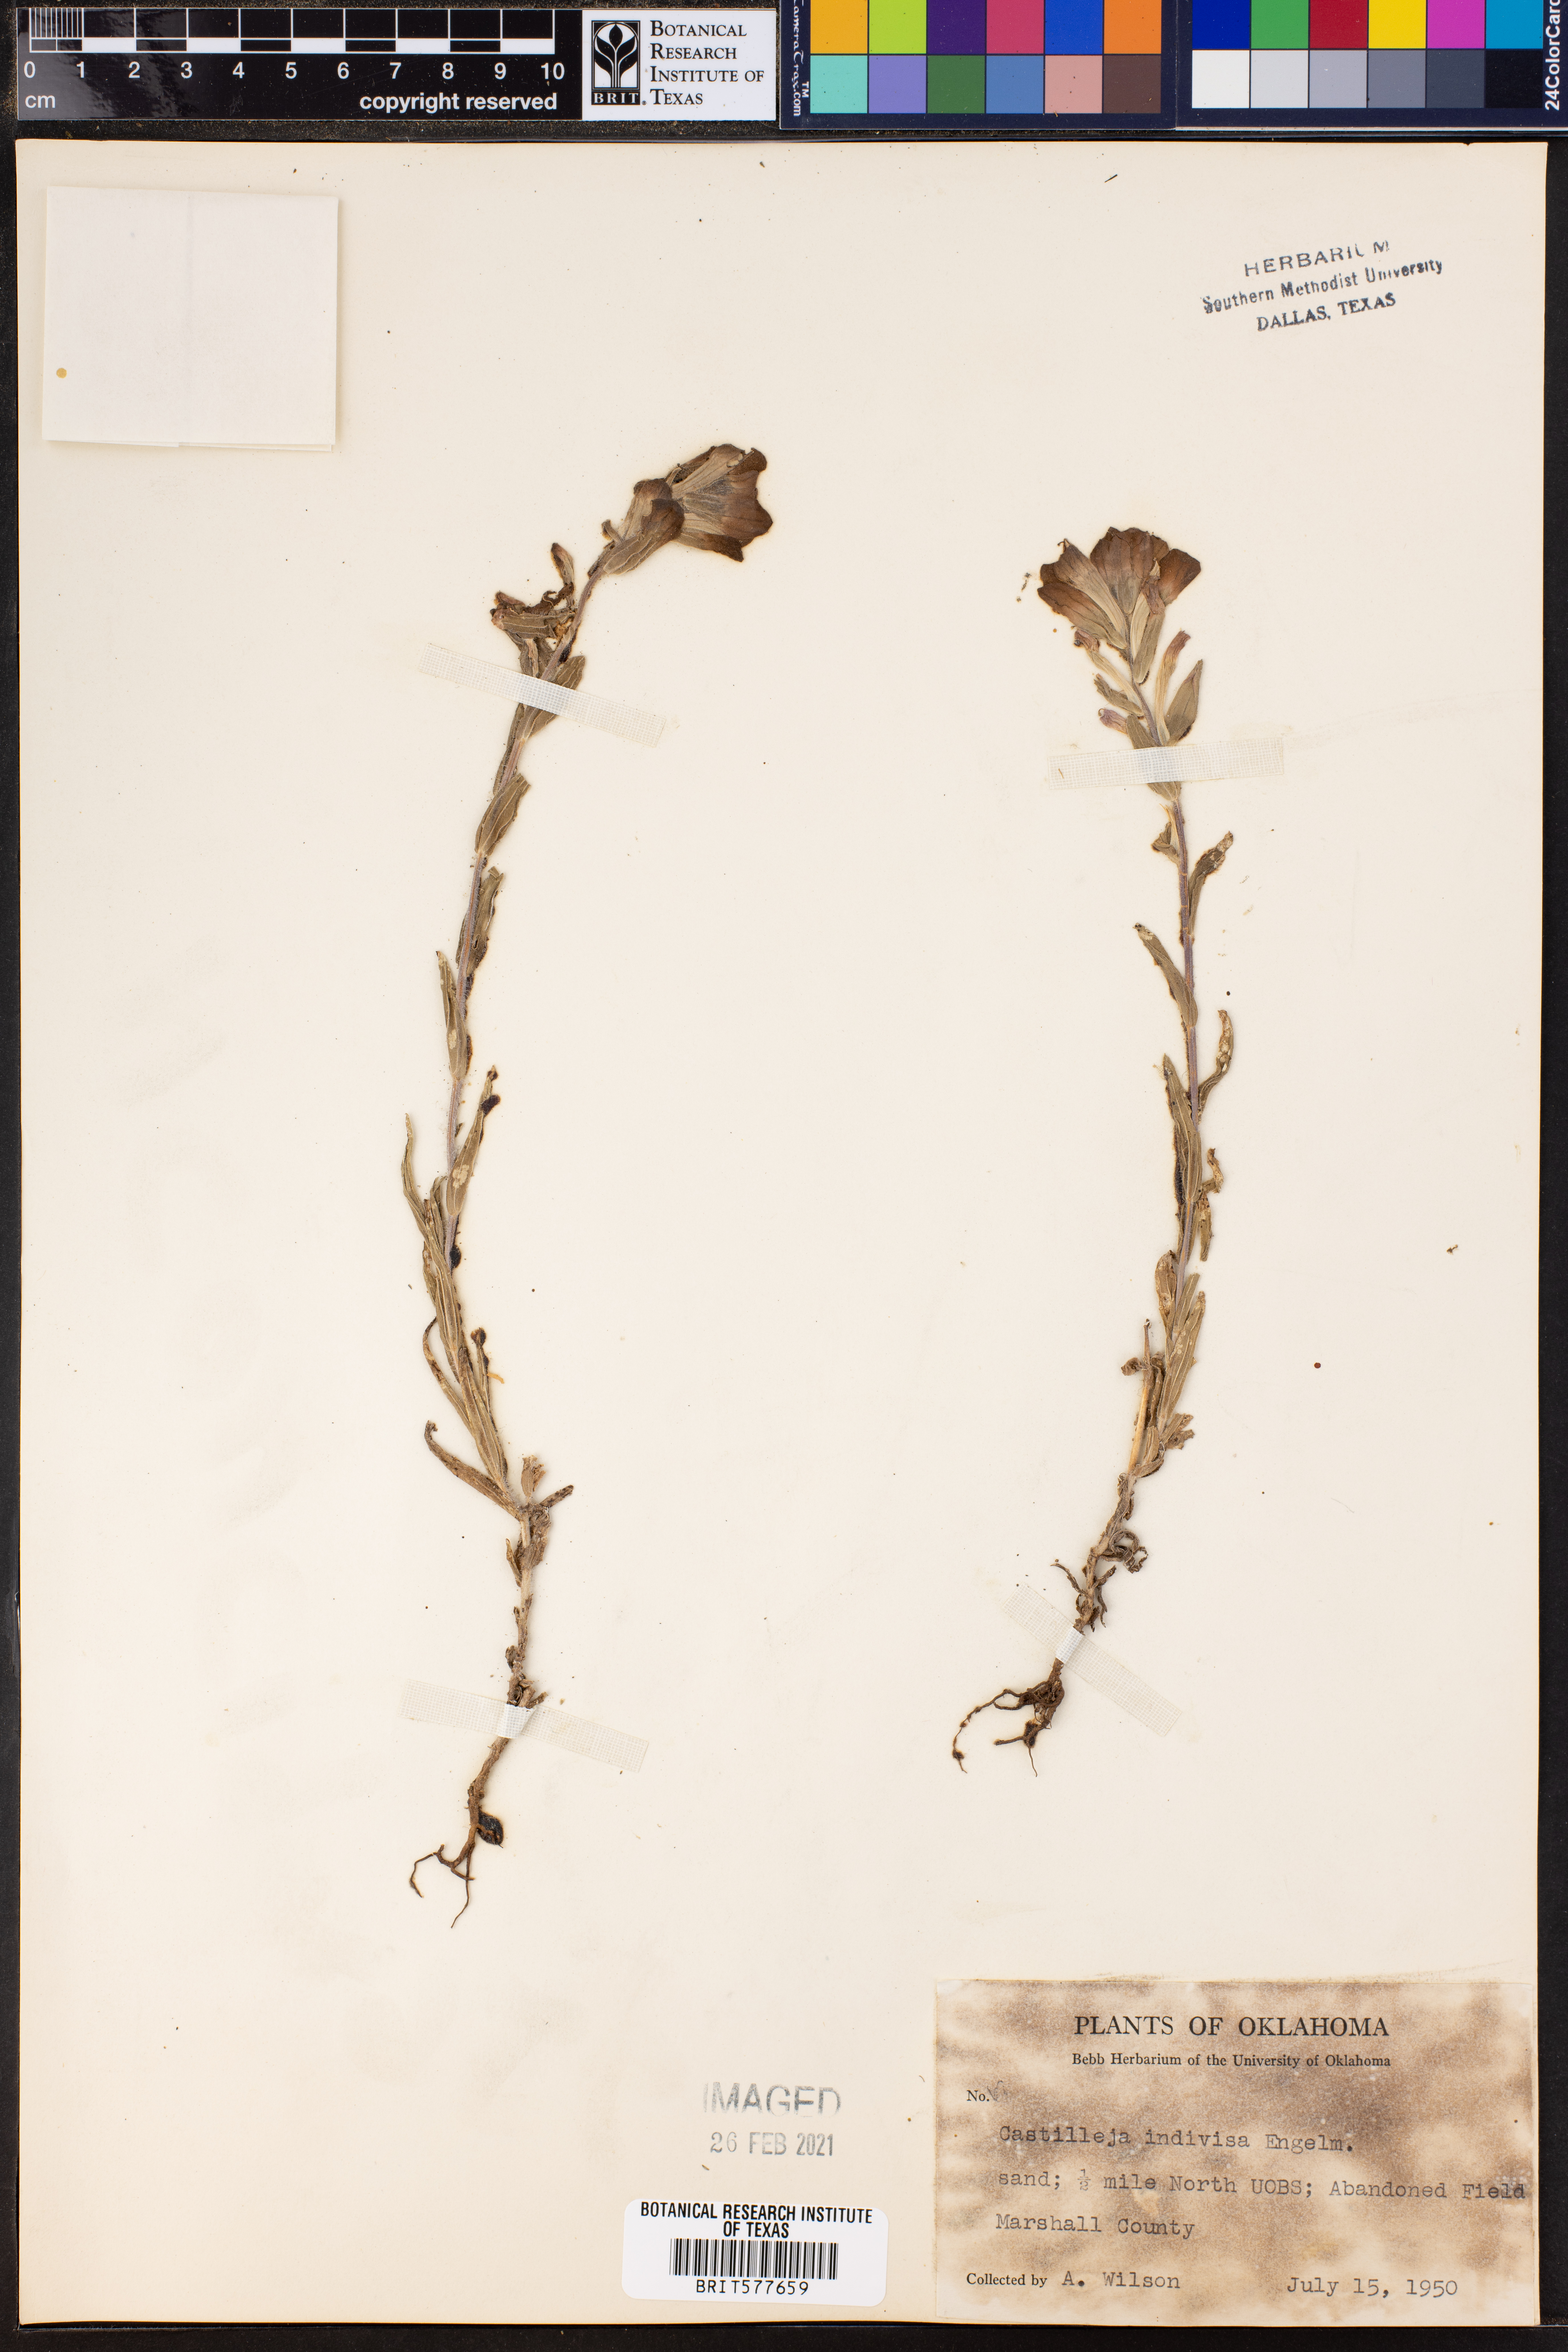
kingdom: Plantae
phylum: Tracheophyta
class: Magnoliopsida
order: Lamiales
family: Orobanchaceae
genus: Castilleja
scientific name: Castilleja indivisa
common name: Texas paintbrush
